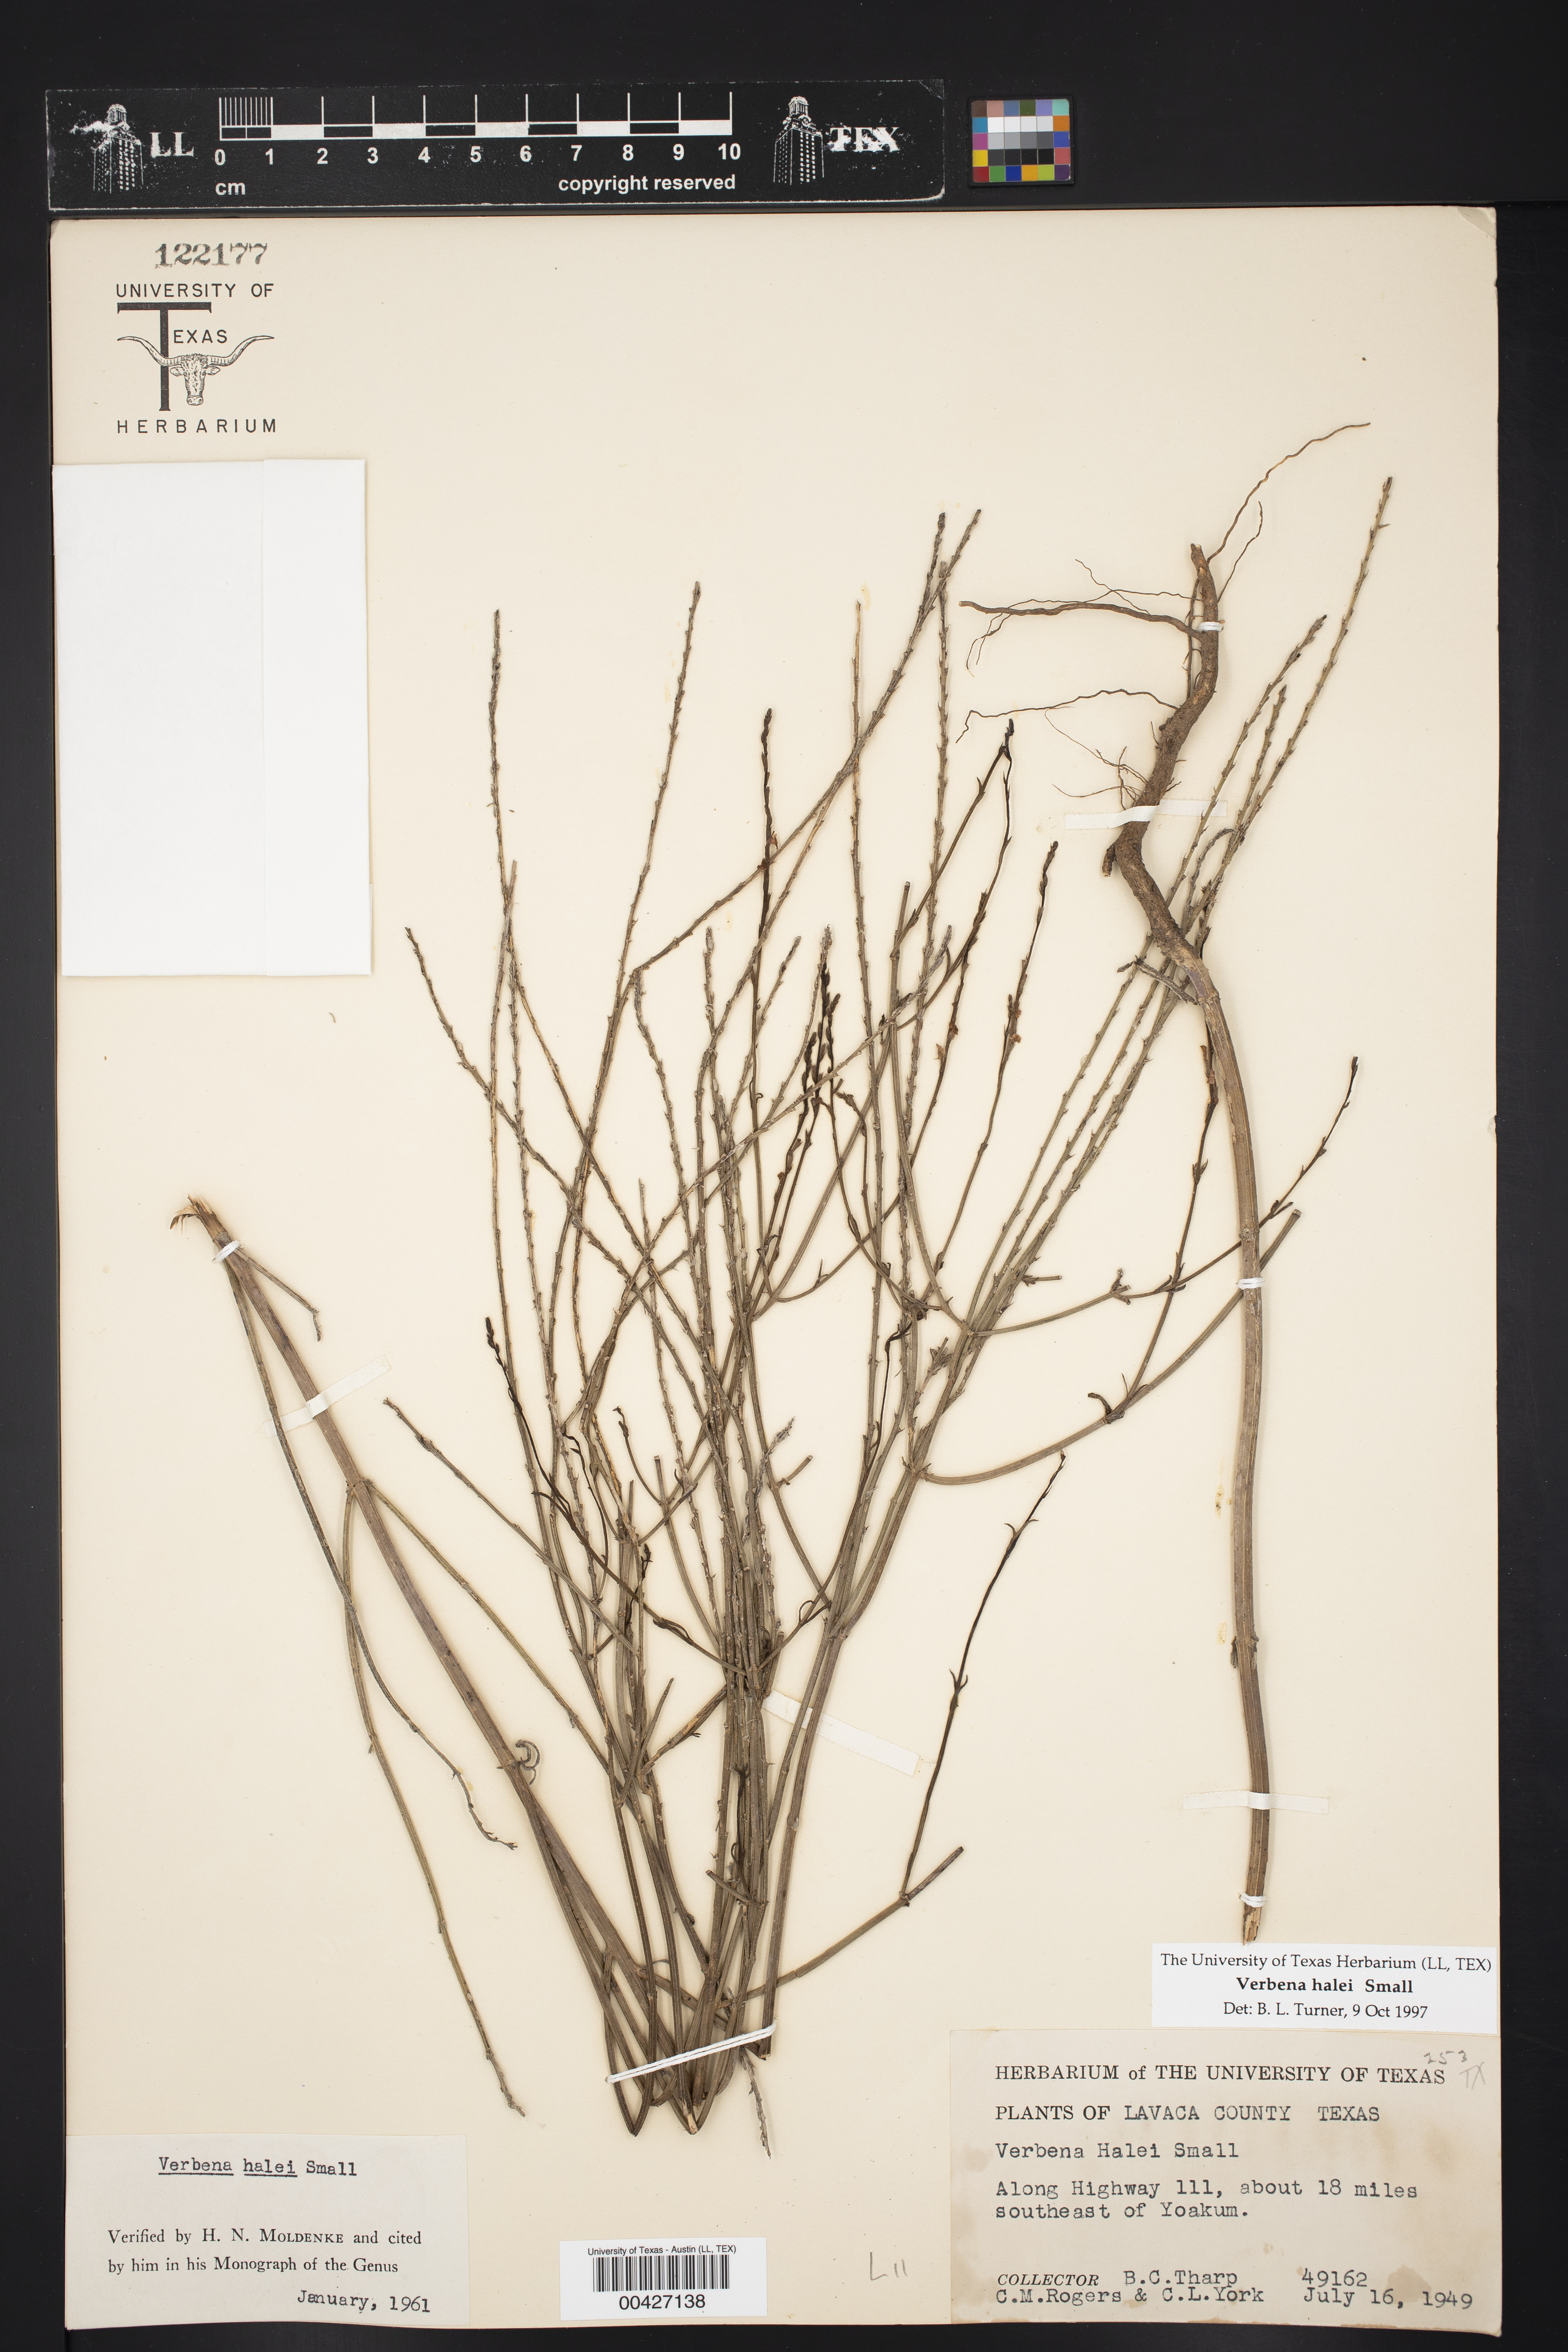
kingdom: Plantae
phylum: Tracheophyta
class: Magnoliopsida
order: Lamiales
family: Verbenaceae
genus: Verbena
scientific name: Verbena halei
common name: Texas vervain
